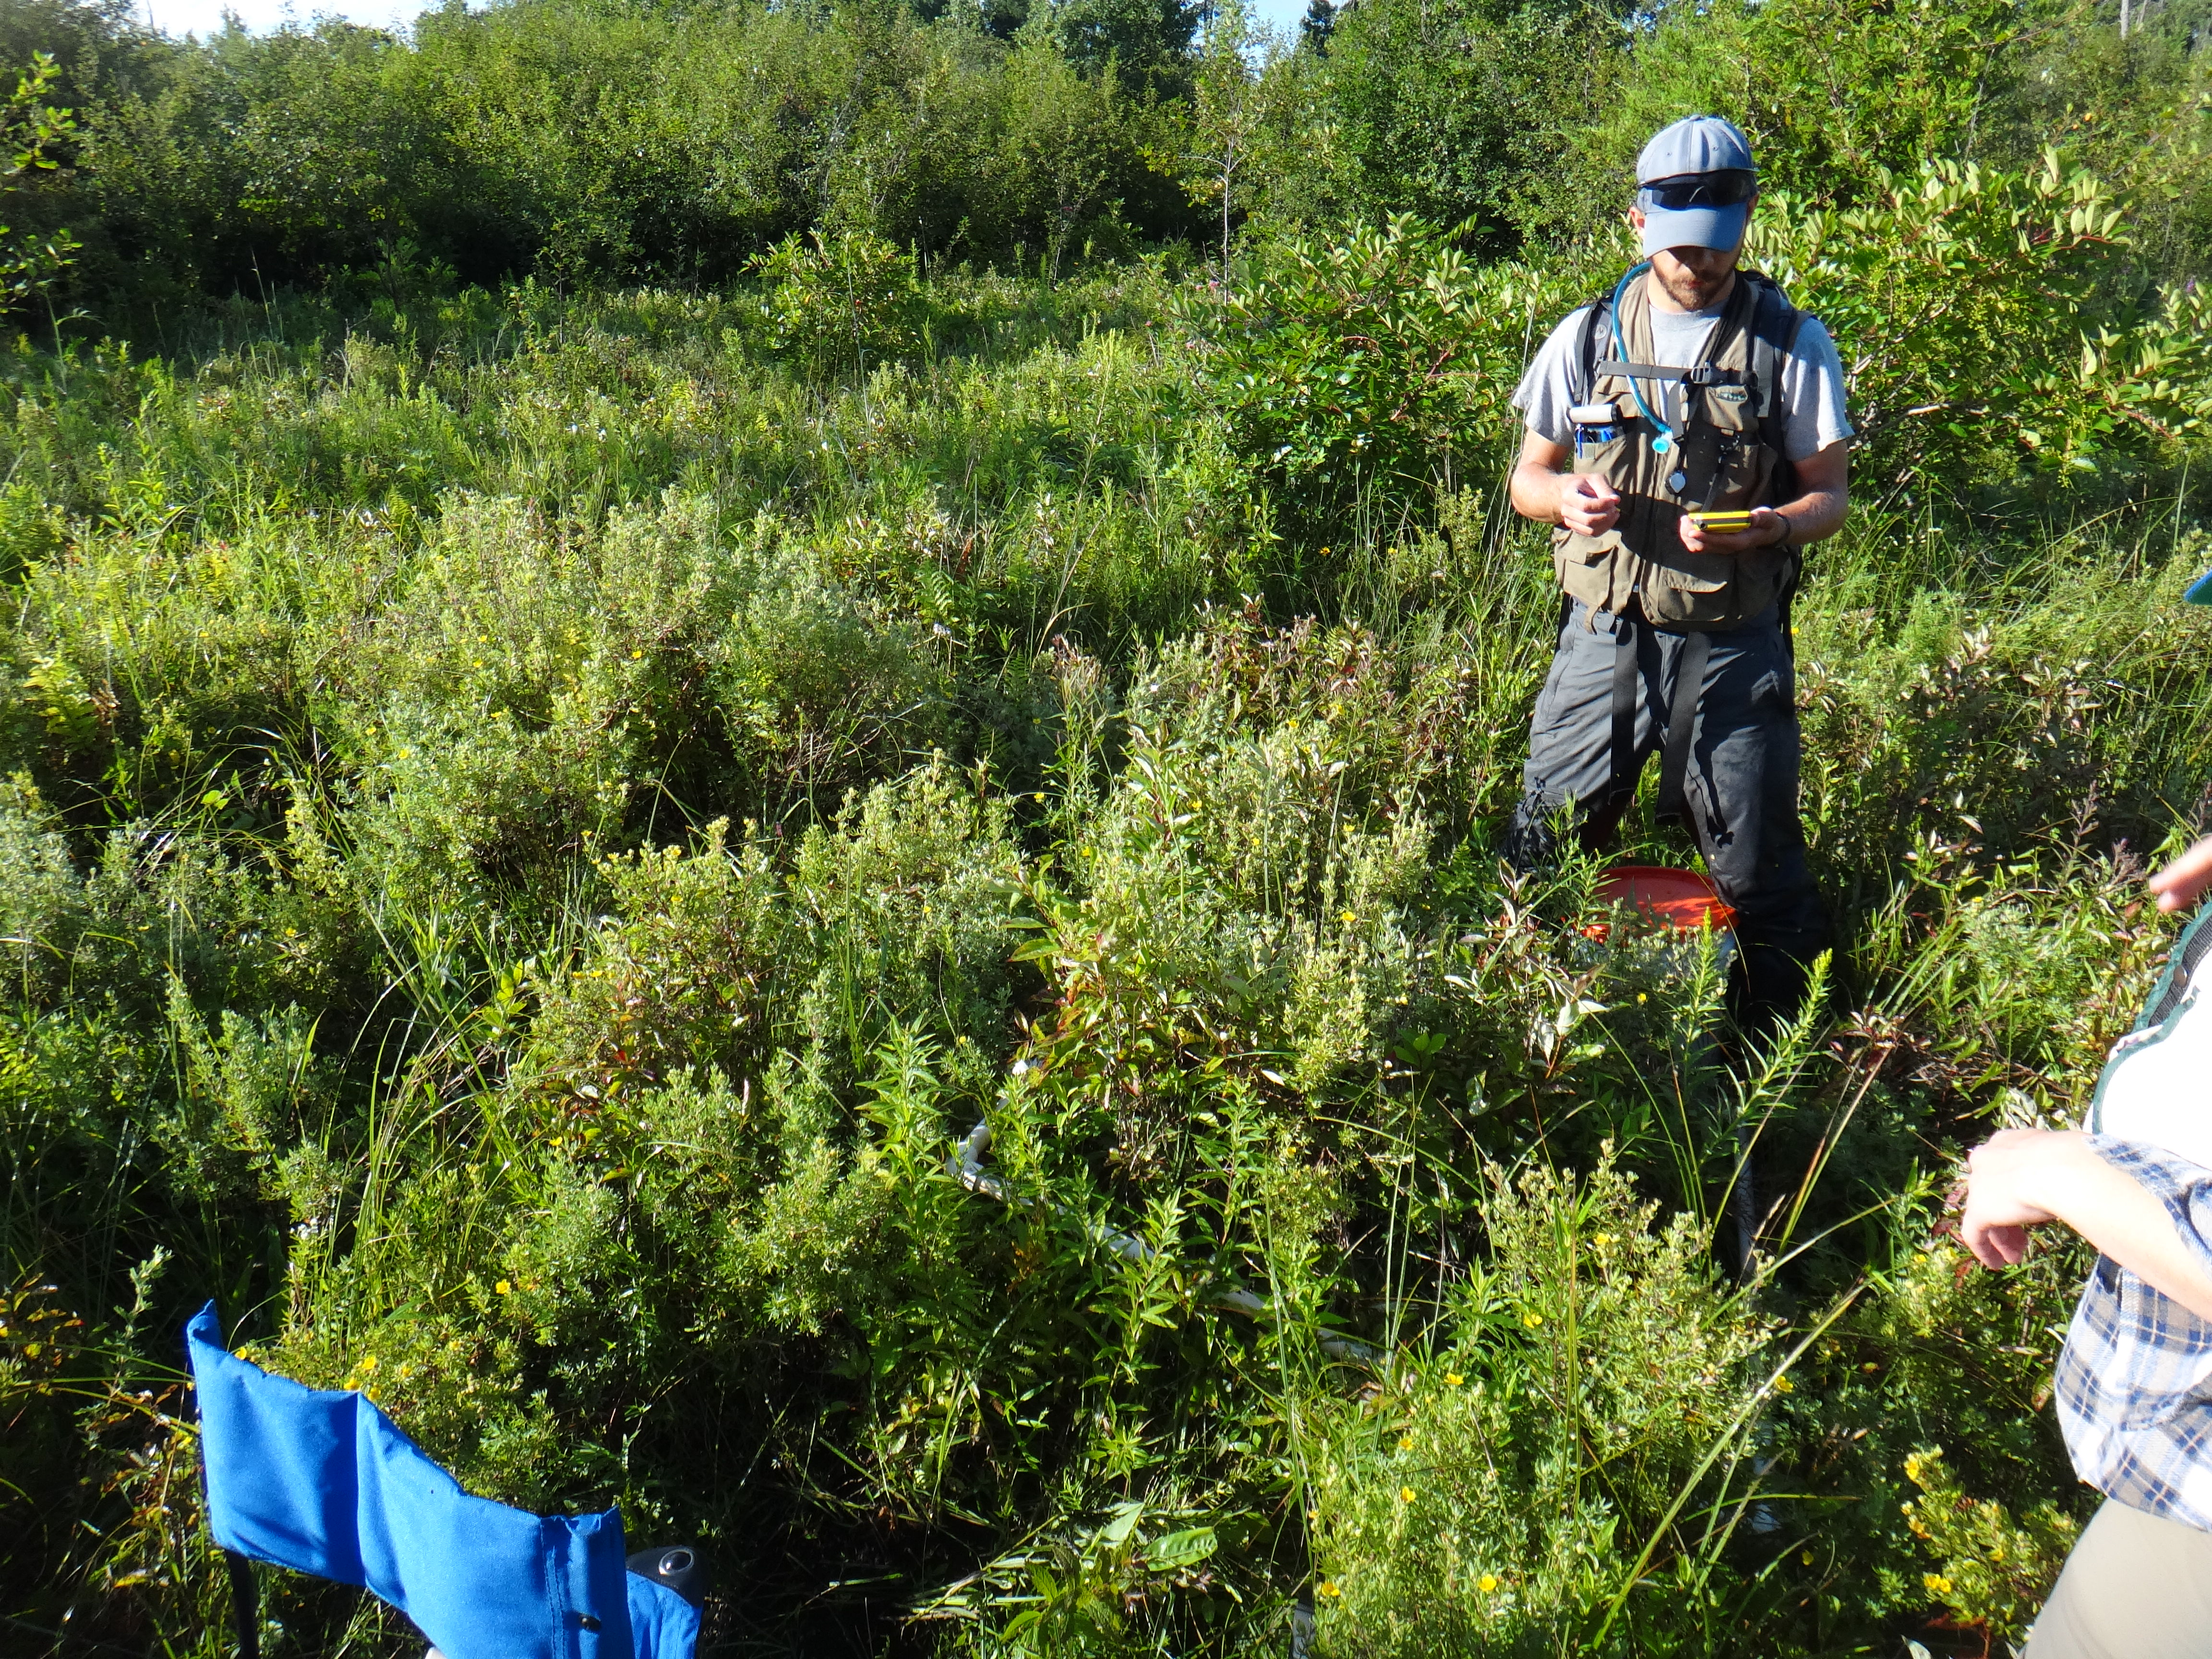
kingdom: Plantae
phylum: Tracheophyta
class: Liliopsida
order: Poales
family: Poaceae
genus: Glyceria
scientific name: Glyceria striata
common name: Fowl manna grass
